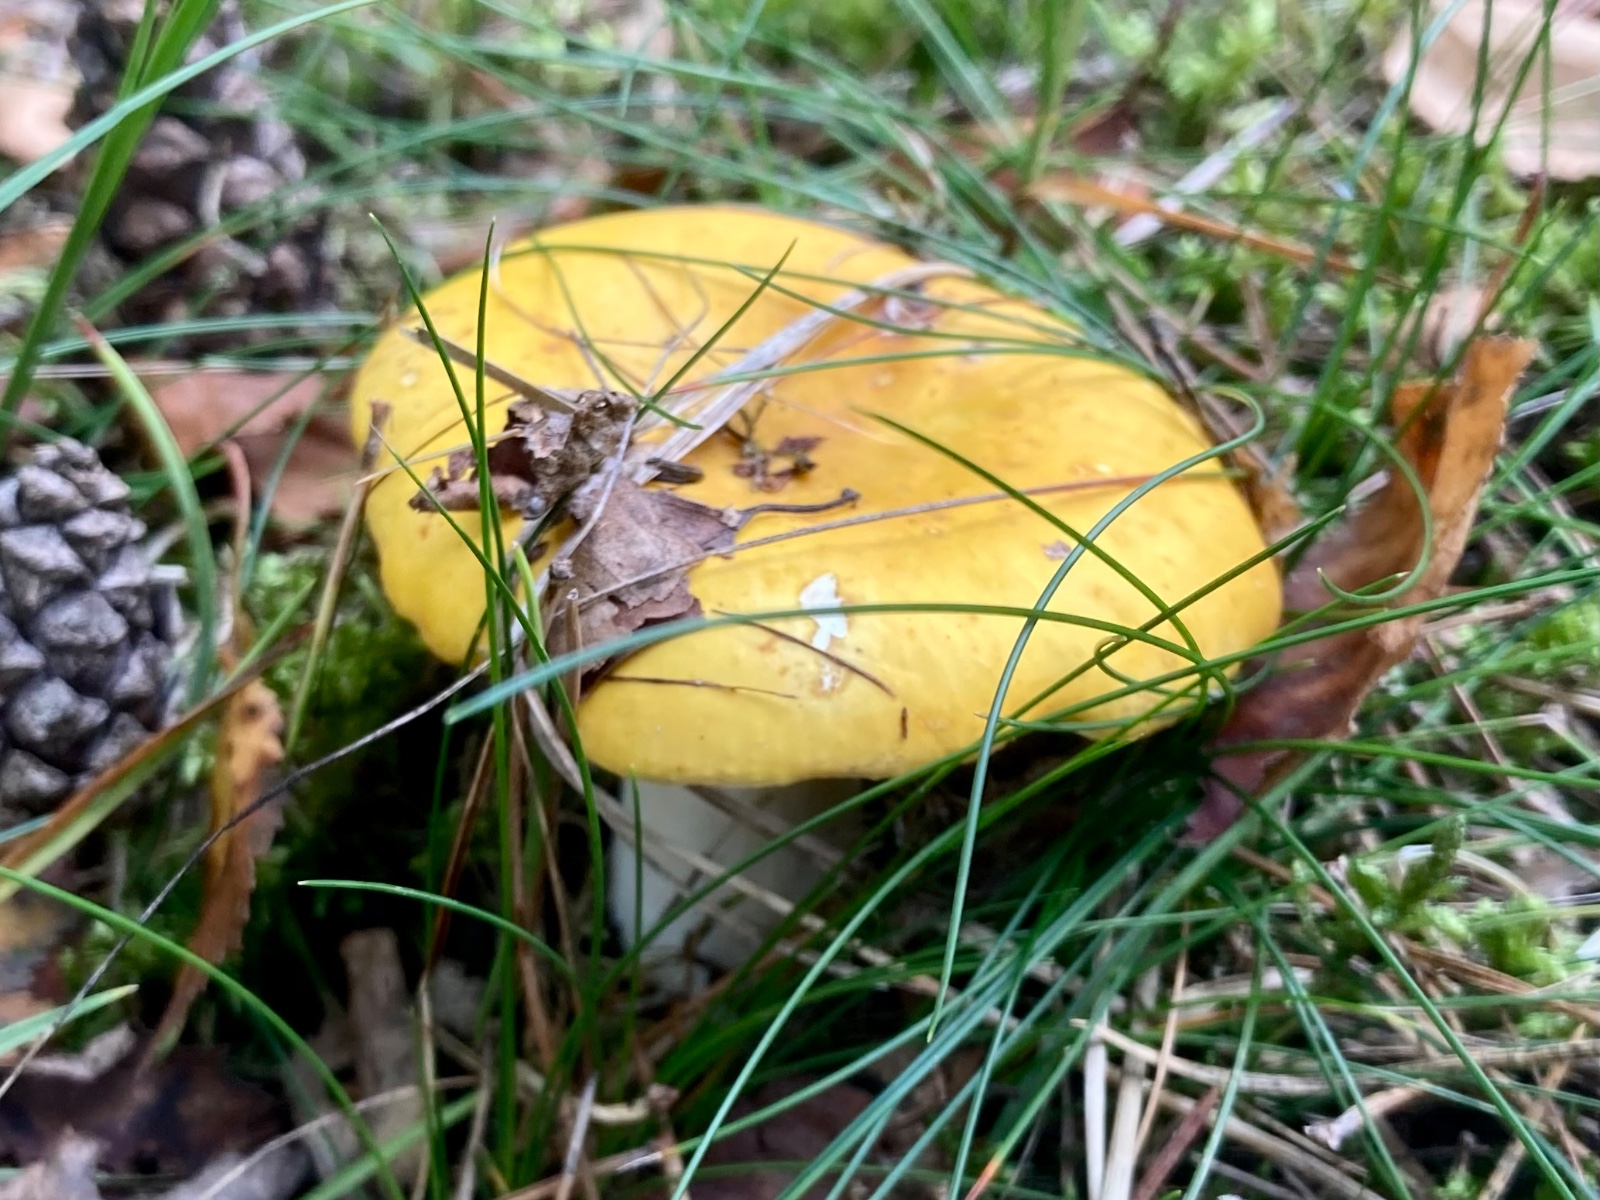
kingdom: Fungi
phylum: Basidiomycota
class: Agaricomycetes
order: Russulales
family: Russulaceae
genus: Russula
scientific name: Russula claroflava
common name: birke-skørhat
